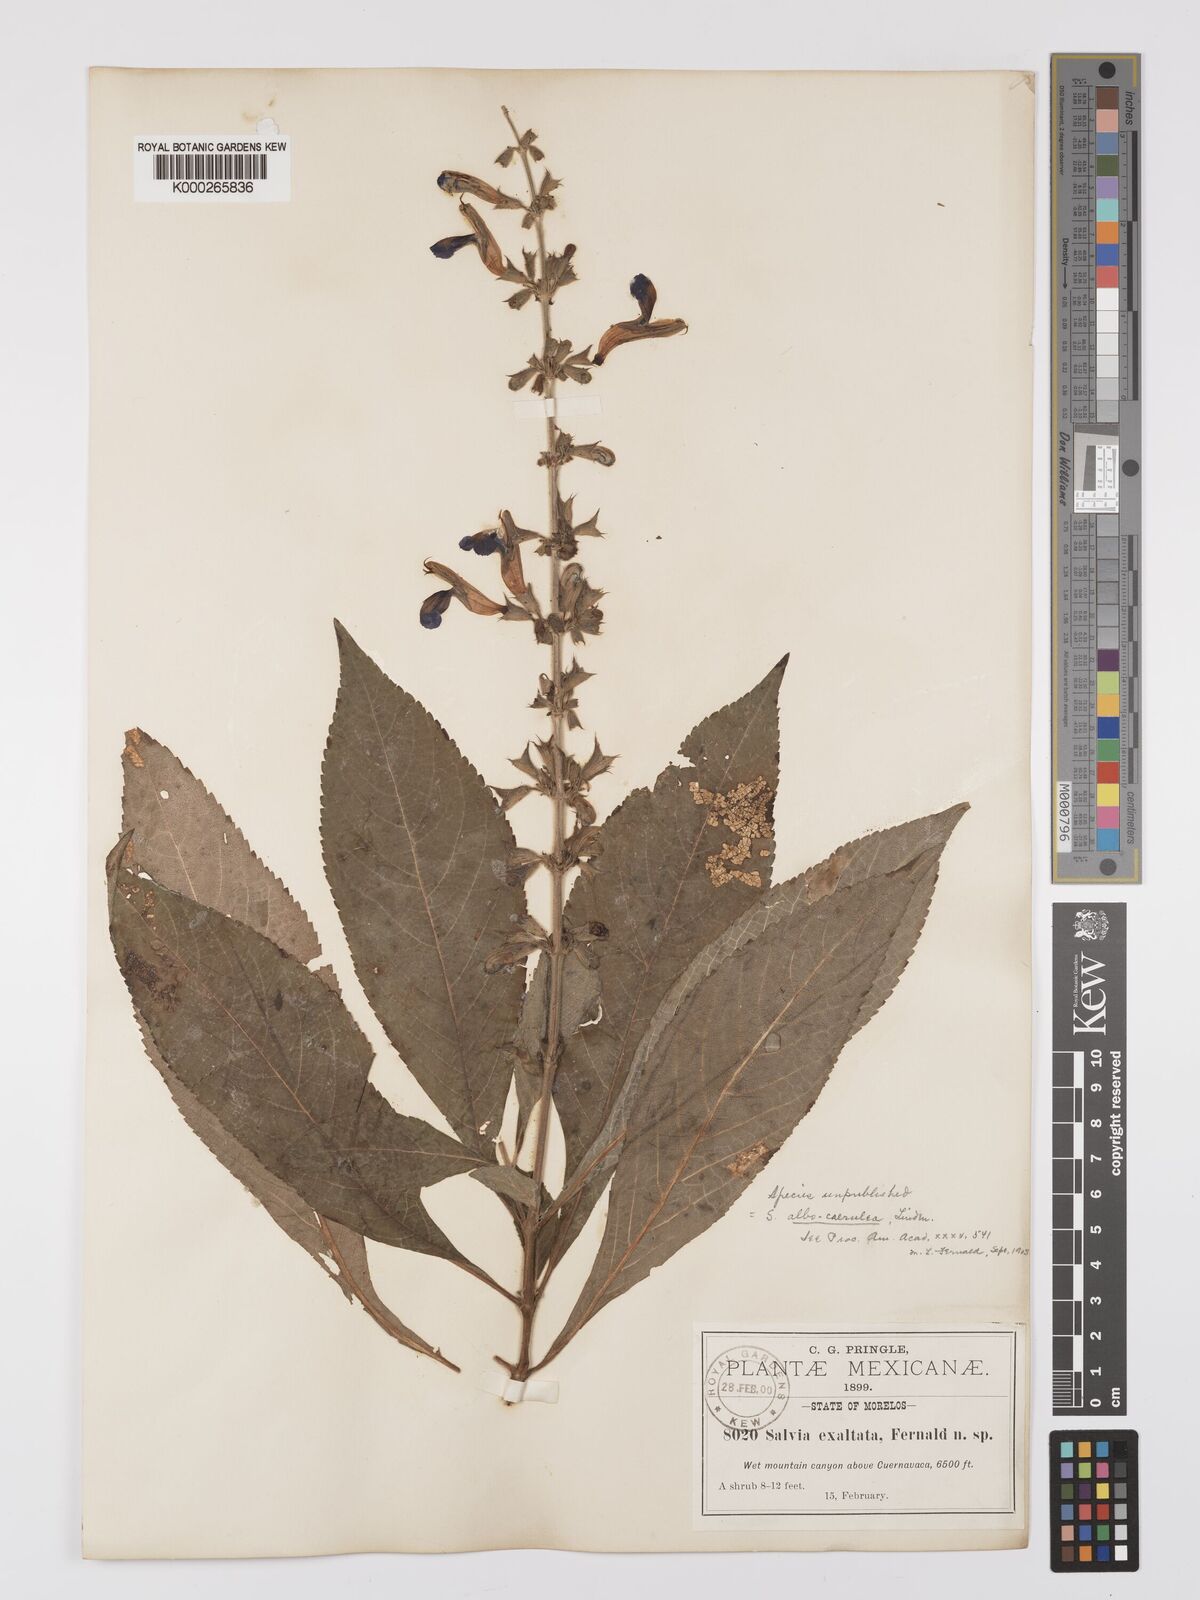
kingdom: Plantae
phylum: Tracheophyta
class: Magnoliopsida
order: Lamiales
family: Lamiaceae
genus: Salvia
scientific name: Salvia albocaerulea
